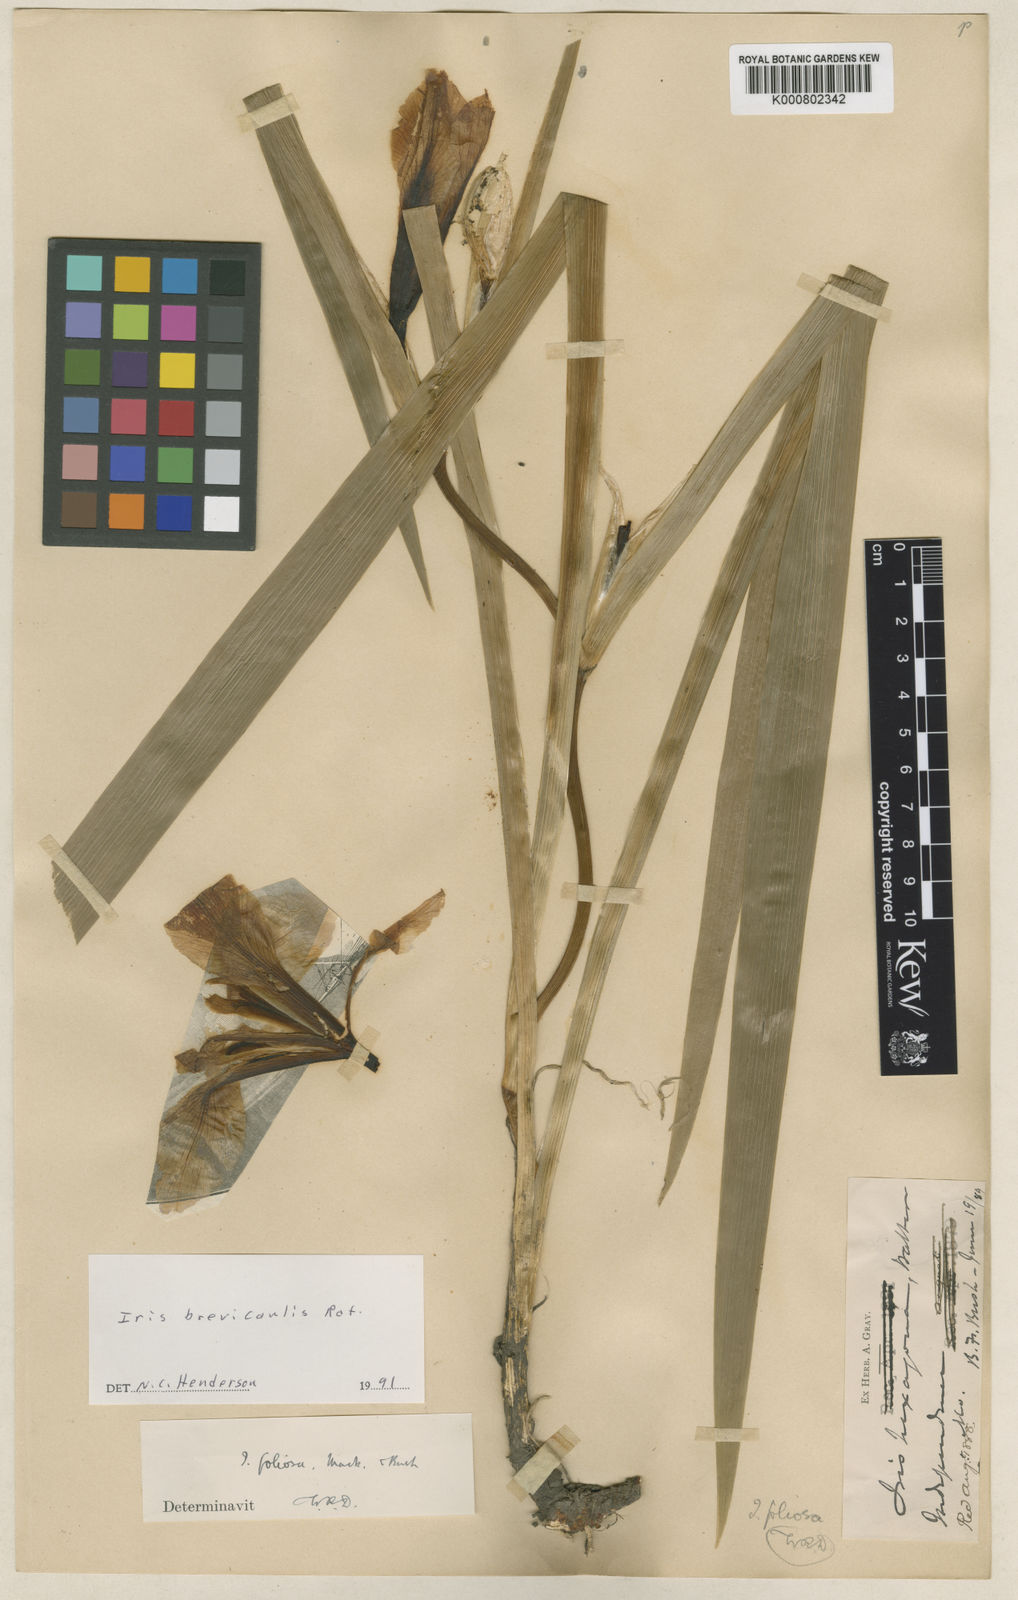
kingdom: Plantae
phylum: Tracheophyta
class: Liliopsida
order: Asparagales
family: Iridaceae
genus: Iris
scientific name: Iris brevicaulis
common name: Zigzag iris
